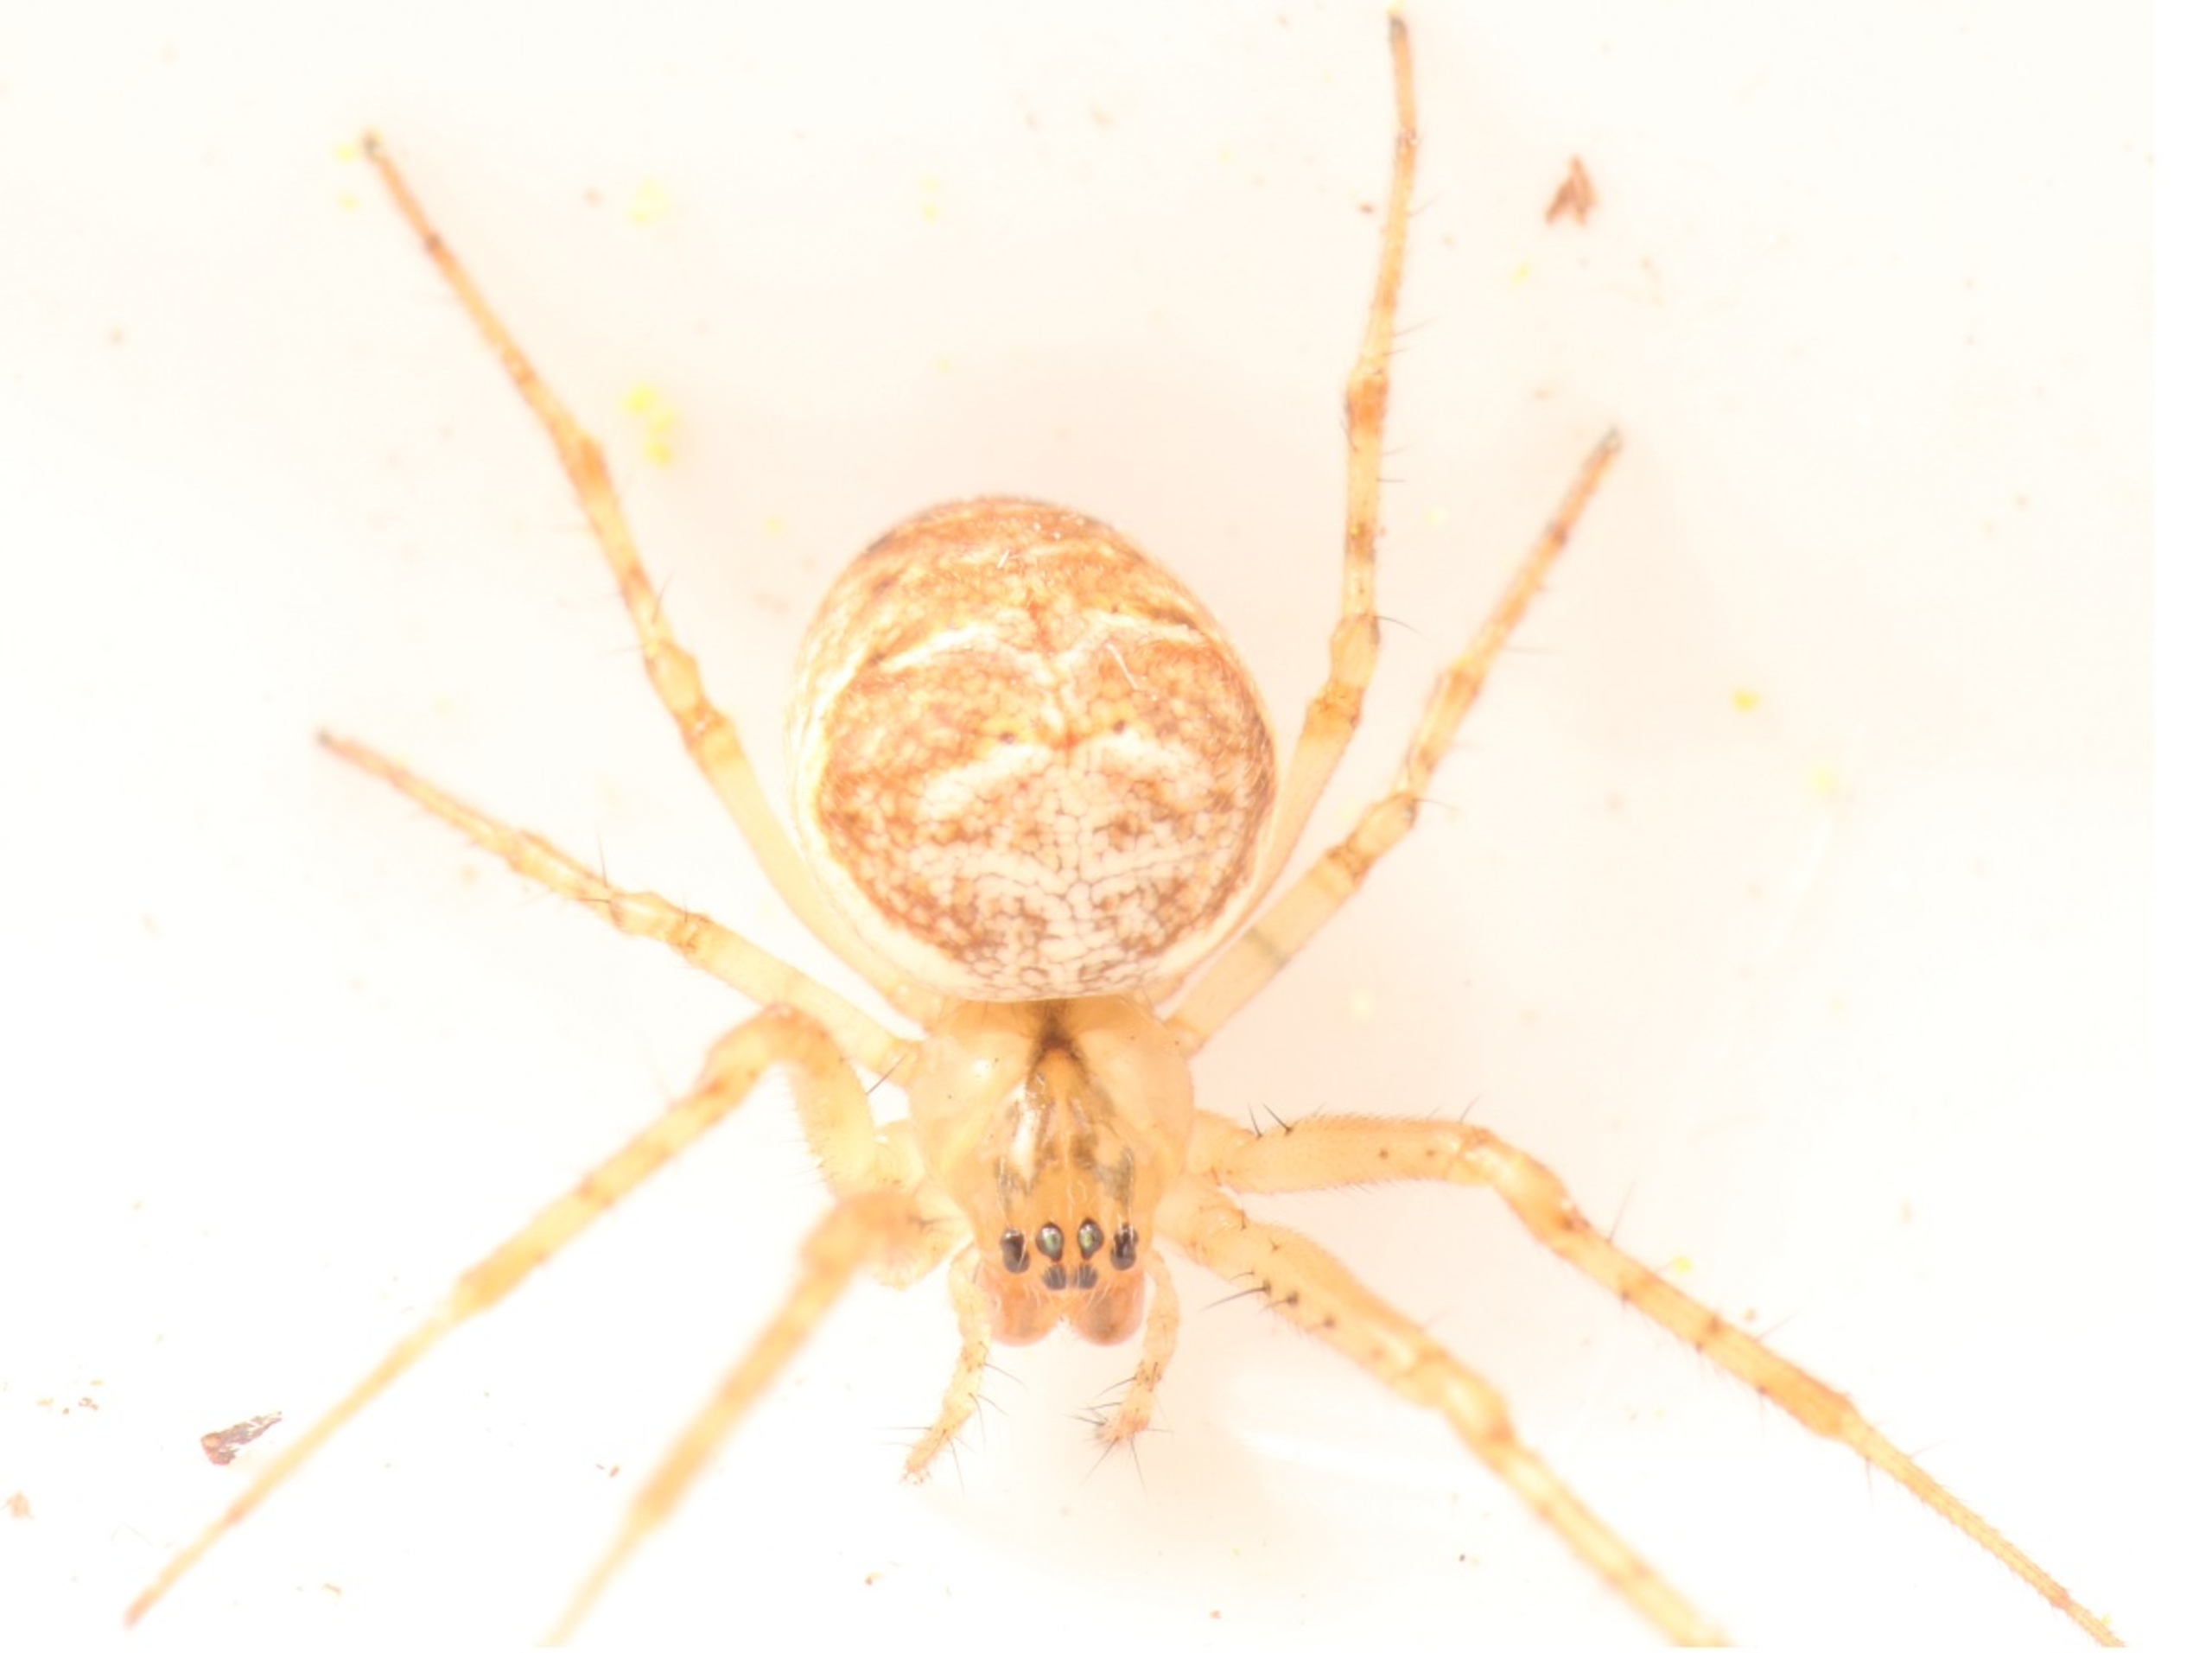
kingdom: Animalia
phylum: Arthropoda
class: Arachnida
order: Araneae
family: Tetragnathidae
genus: Metellina
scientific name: Metellina
